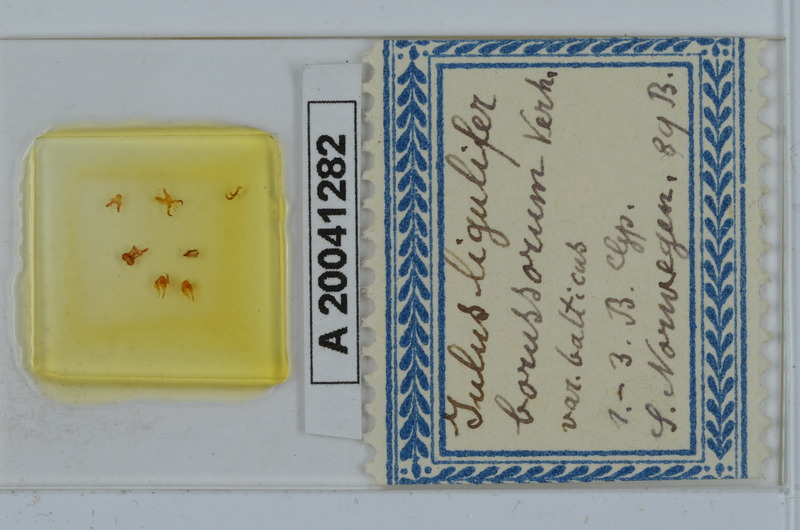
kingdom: Animalia
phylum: Arthropoda
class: Diplopoda
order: Julida
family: Julidae
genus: Julus
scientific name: Julus scandinavius
